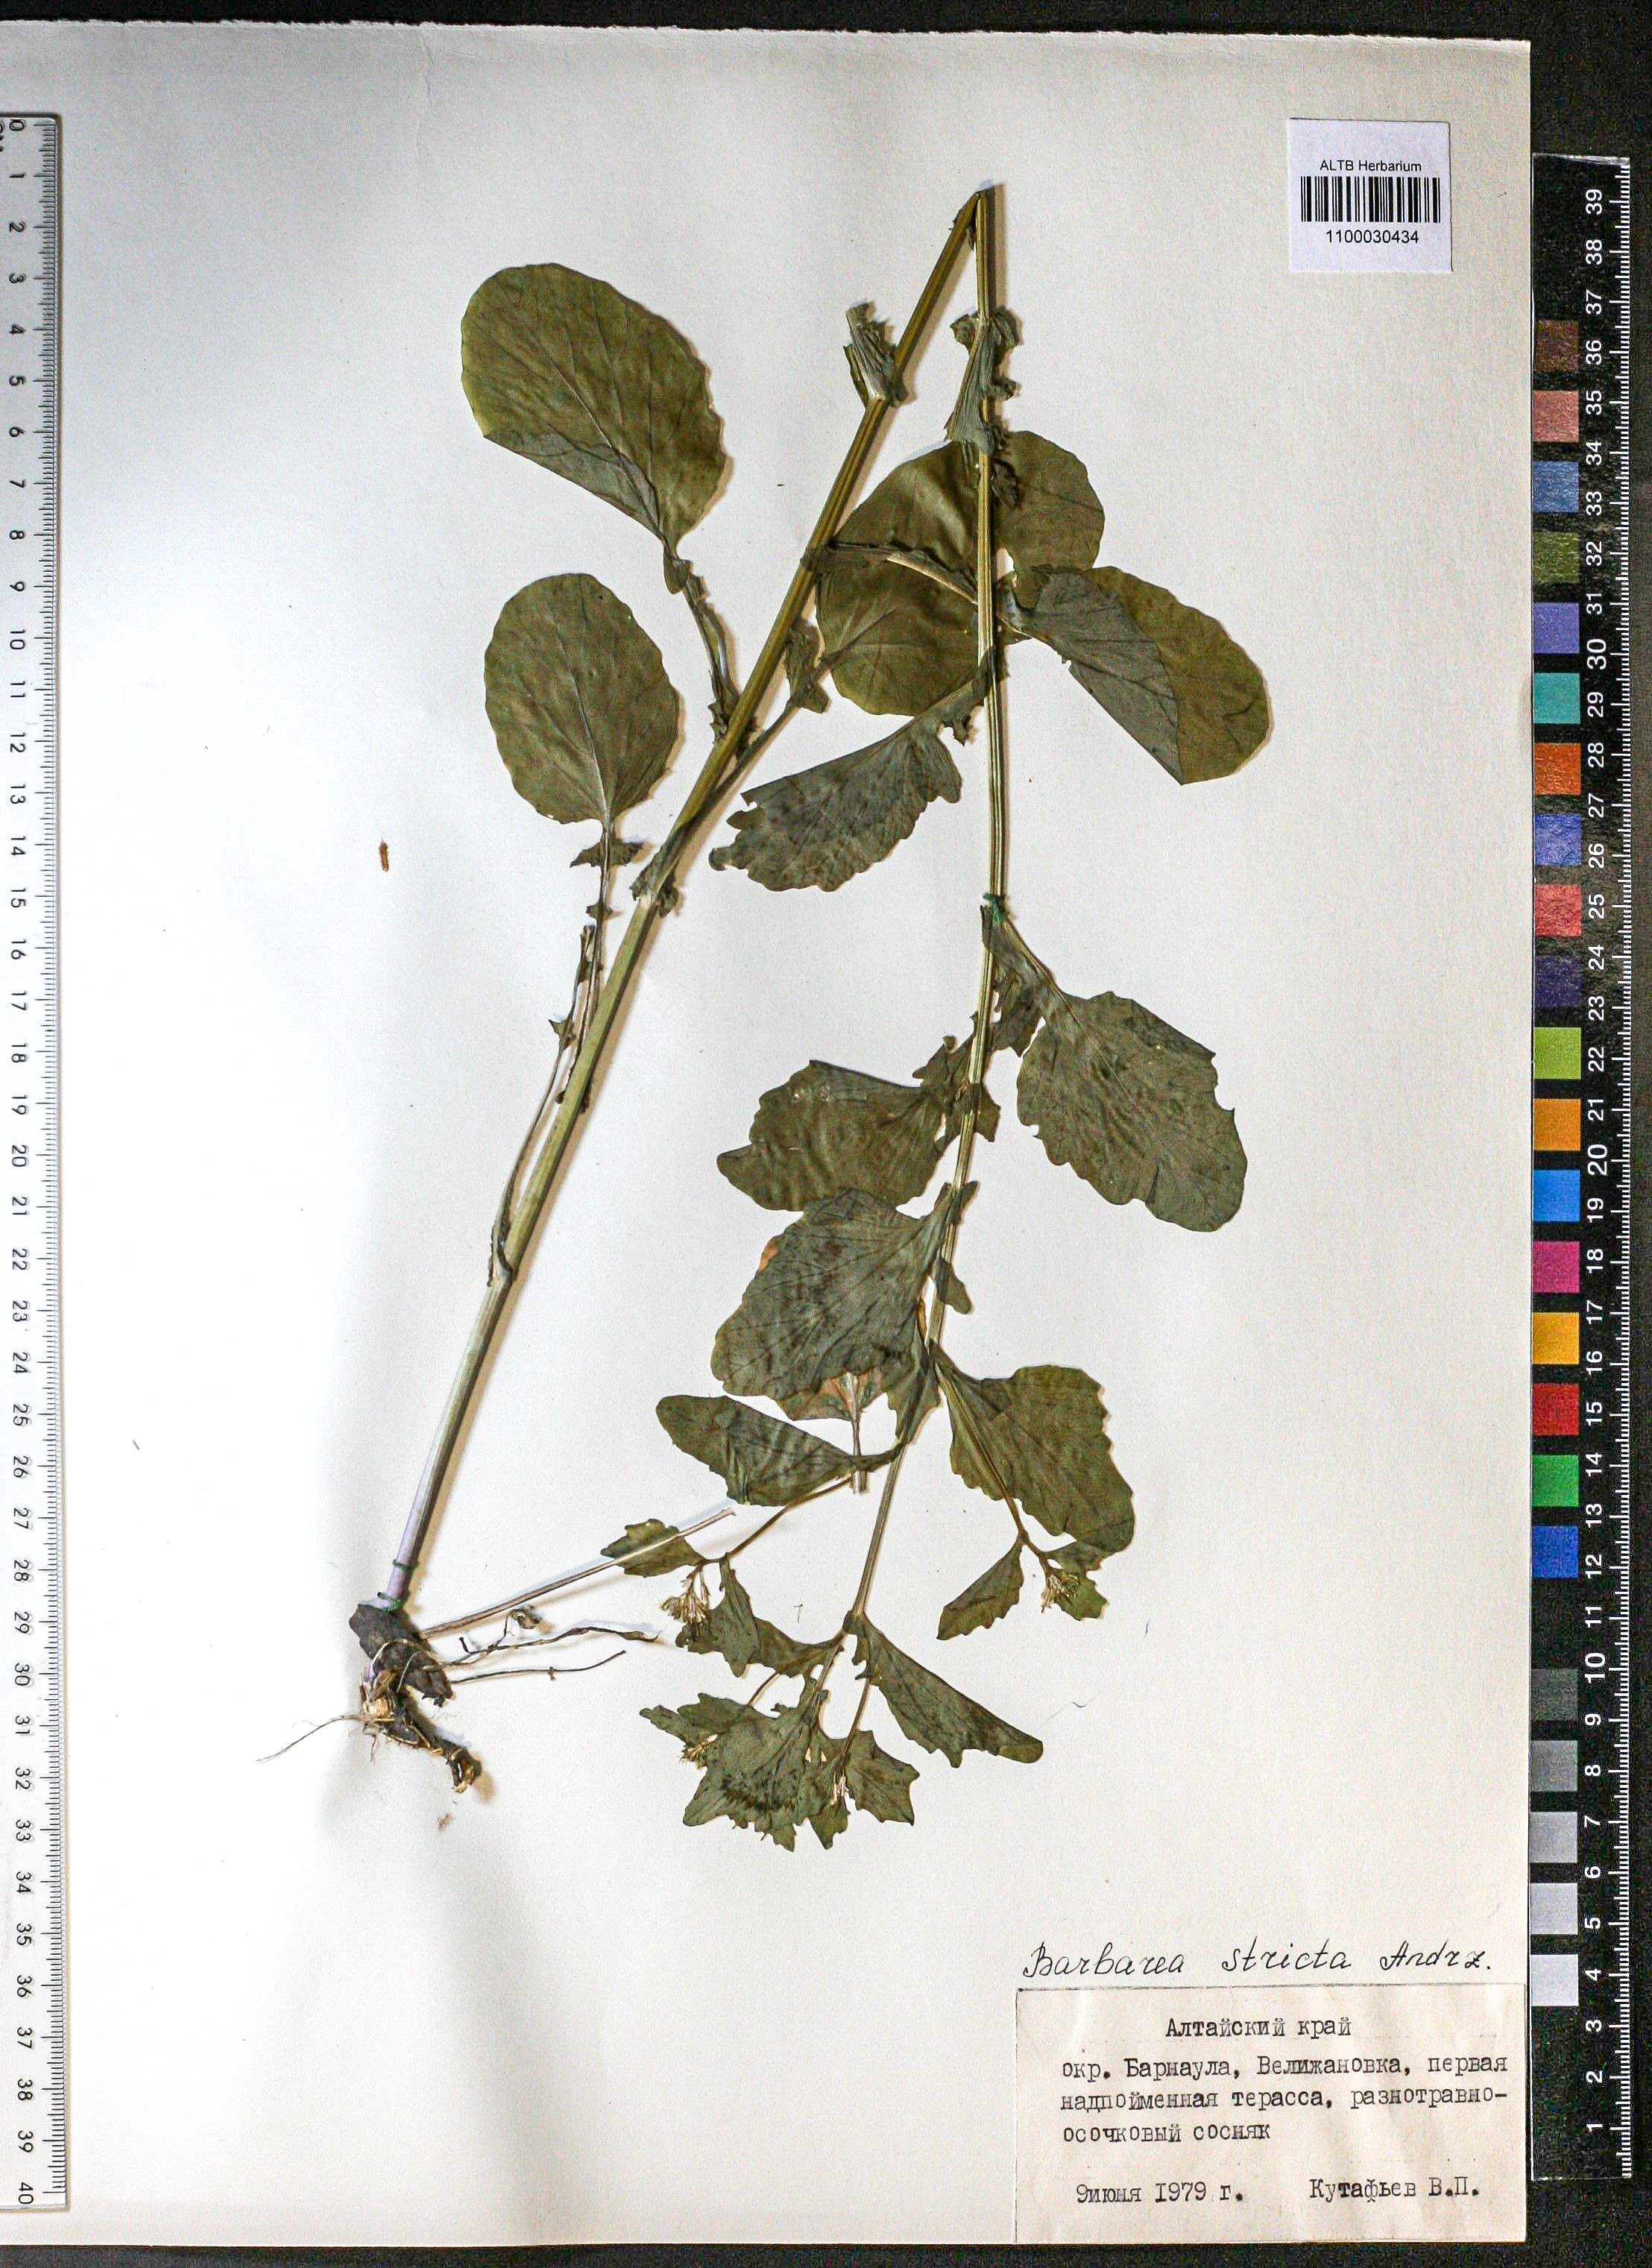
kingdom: Plantae
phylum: Tracheophyta
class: Magnoliopsida
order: Brassicales
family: Brassicaceae
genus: Barbarea
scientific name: Barbarea vulgaris
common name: Cressy-greens
